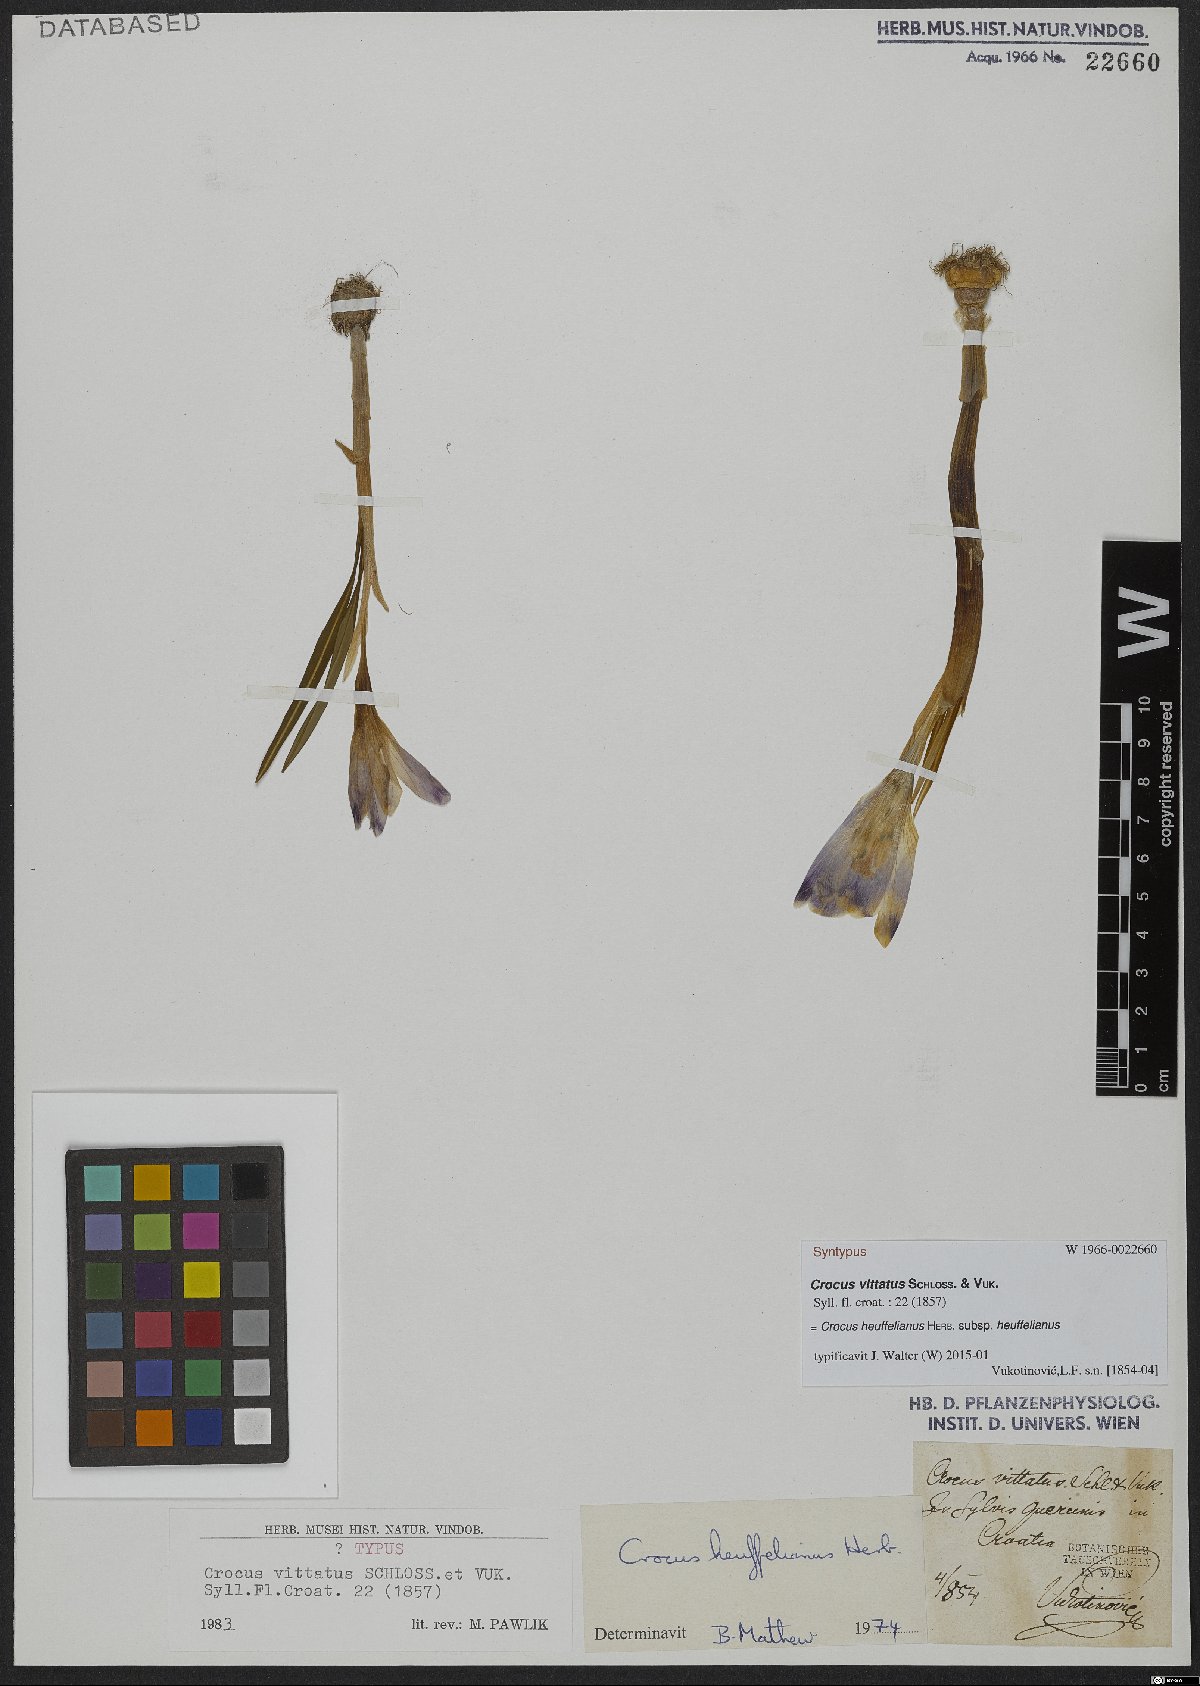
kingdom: Plantae
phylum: Tracheophyta
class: Liliopsida
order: Asparagales
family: Iridaceae
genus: Crocus
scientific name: Crocus heuffelianus
